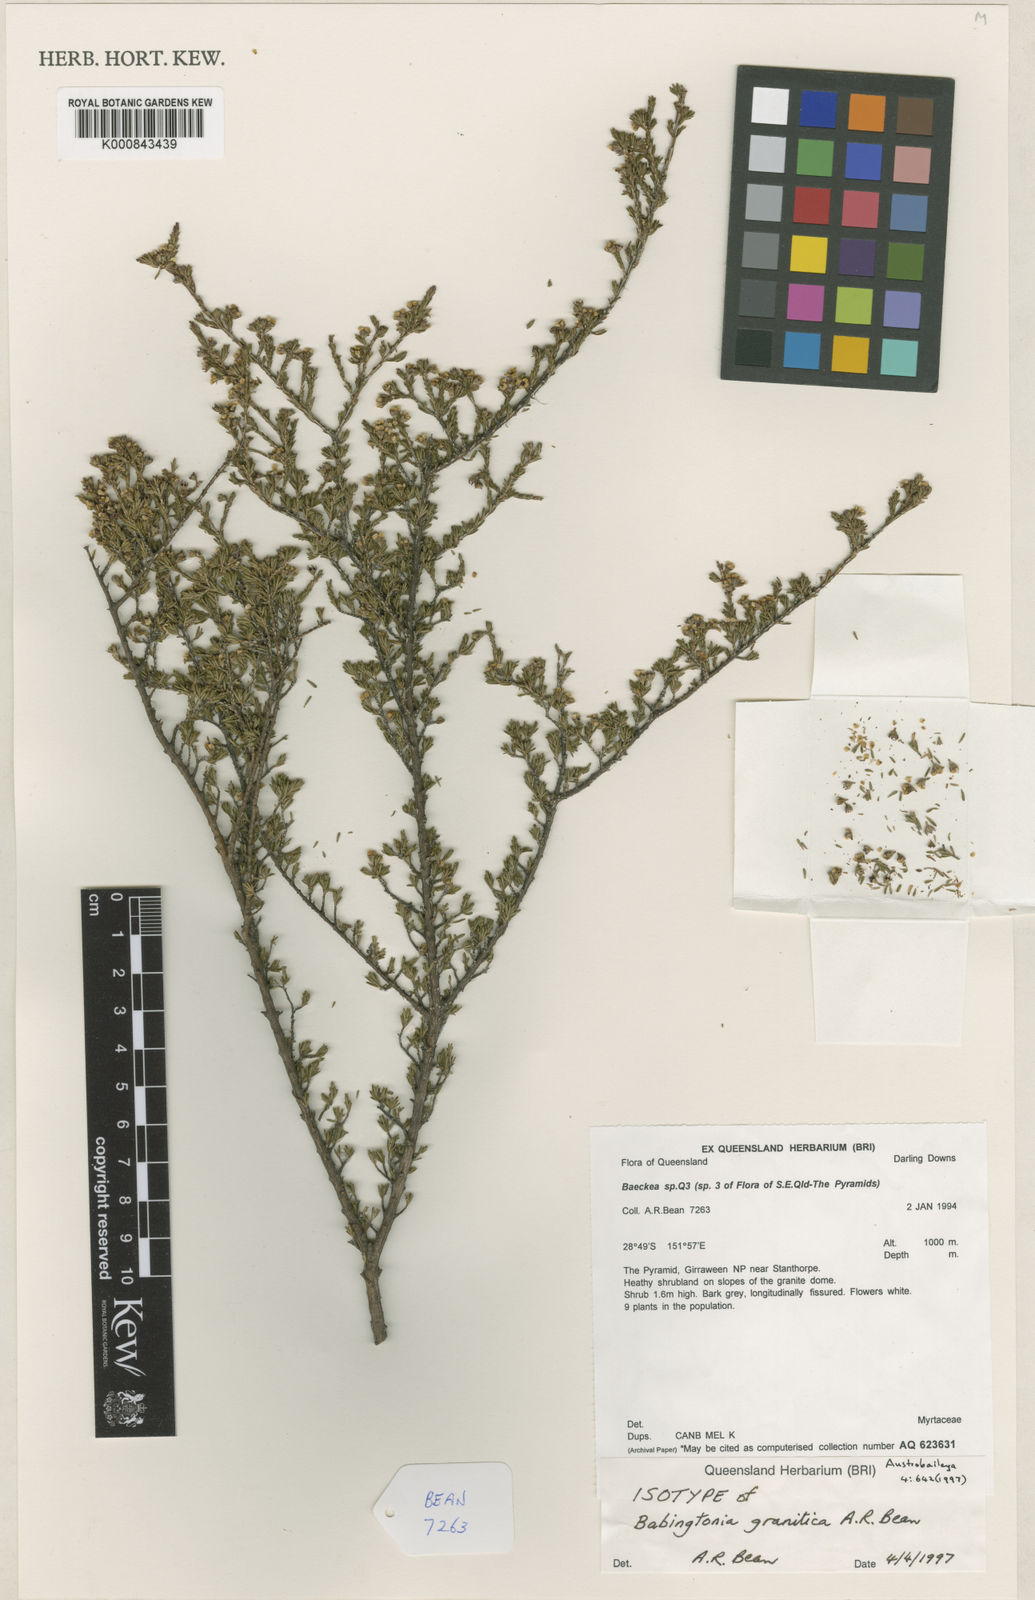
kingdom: Plantae
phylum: Tracheophyta
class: Magnoliopsida
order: Myrtales
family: Myrtaceae
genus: Kardomia
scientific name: Kardomia granitica
